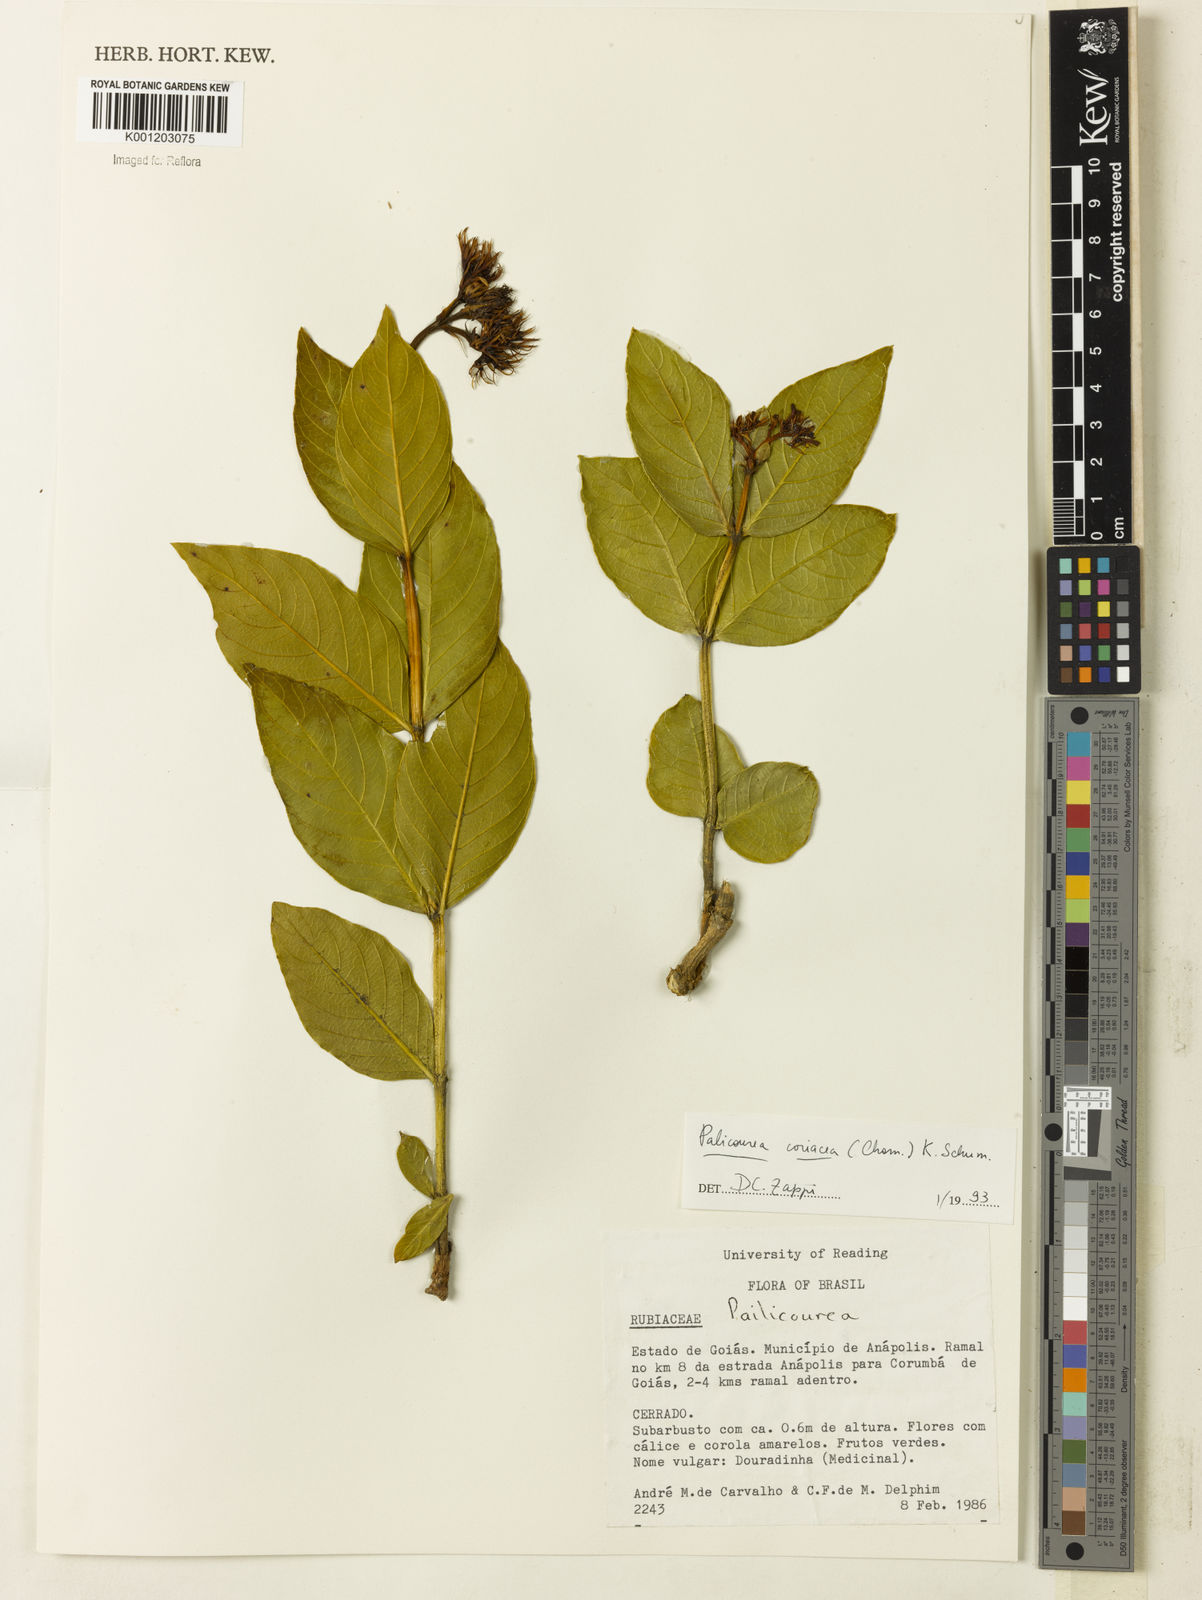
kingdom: Plantae
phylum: Tracheophyta
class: Magnoliopsida
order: Gentianales
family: Rubiaceae
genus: Palicourea
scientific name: Palicourea coriacea
